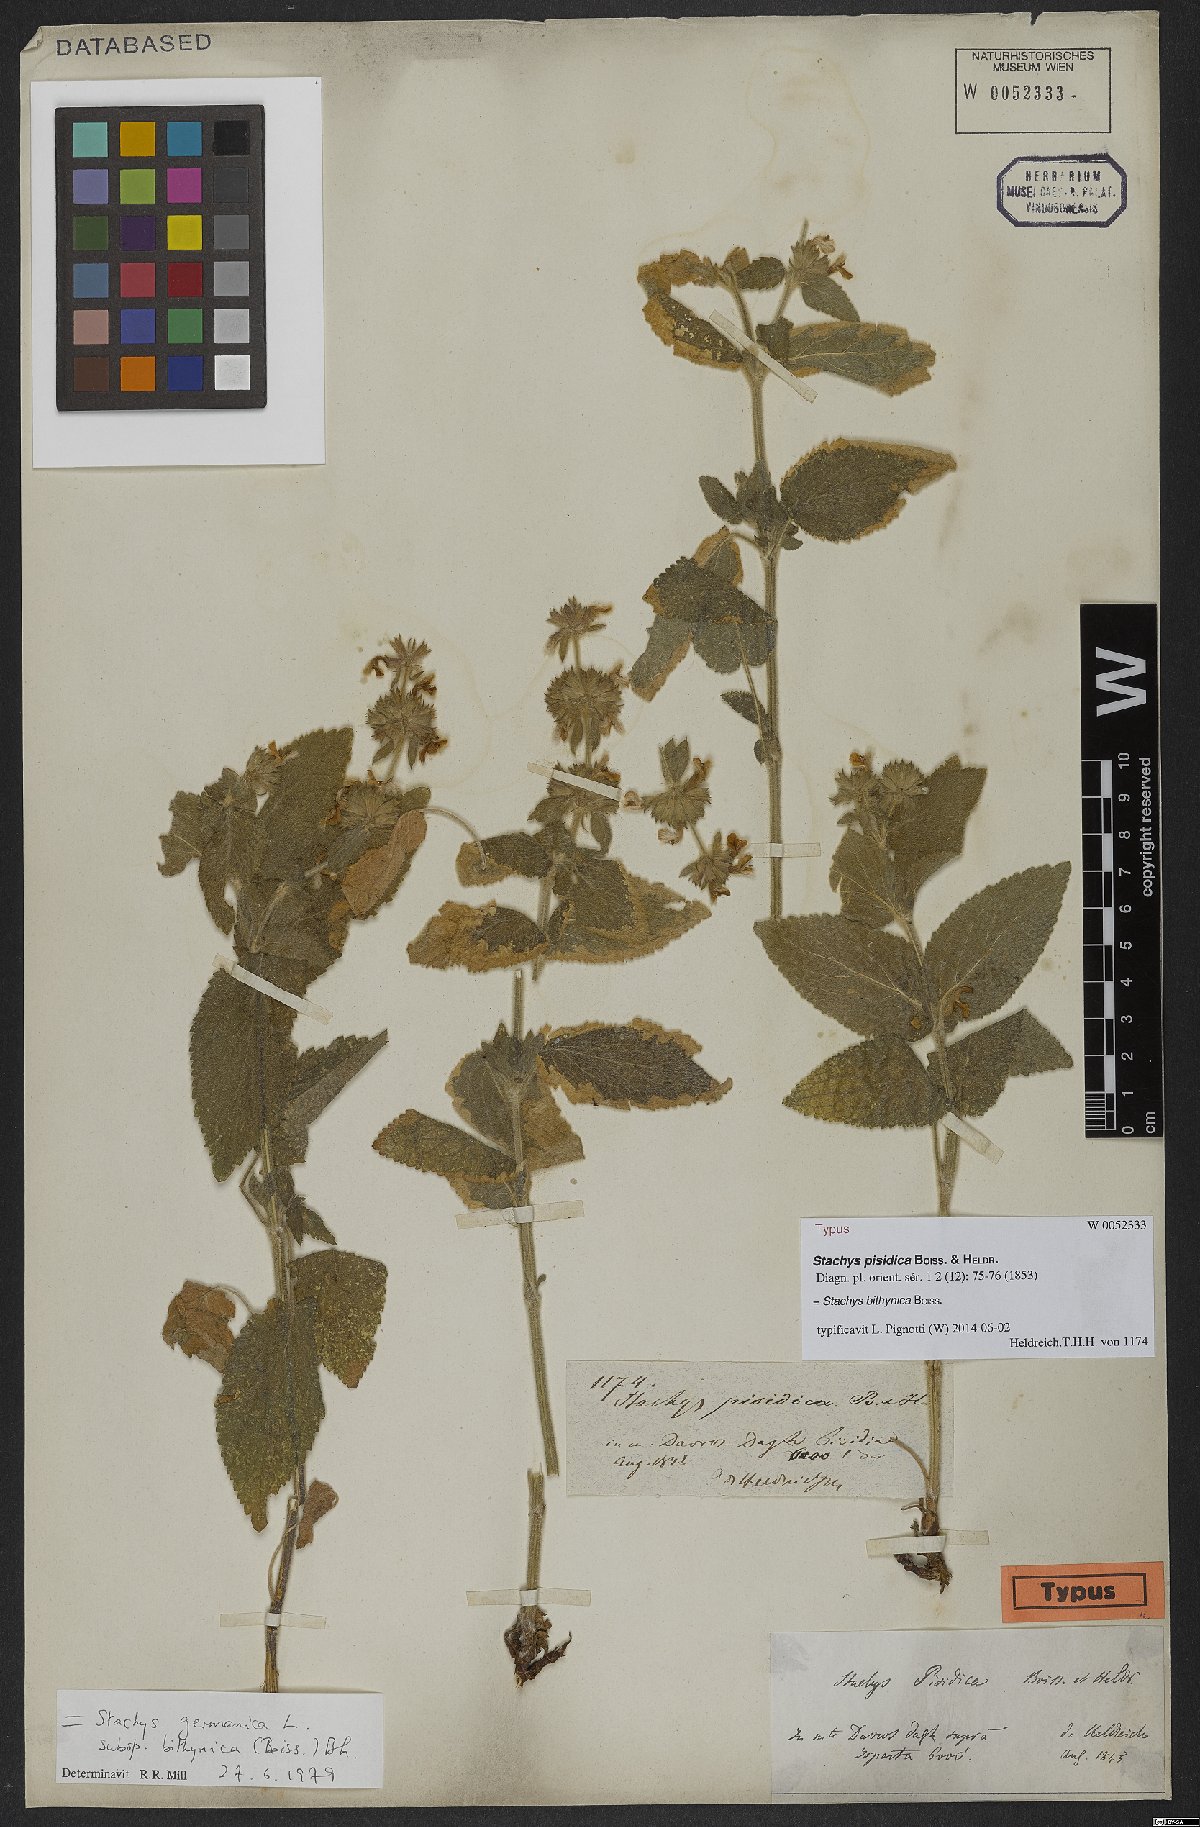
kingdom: Plantae
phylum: Tracheophyta
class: Magnoliopsida
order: Lamiales
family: Lamiaceae
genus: Stachys
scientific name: Stachys bithynica
